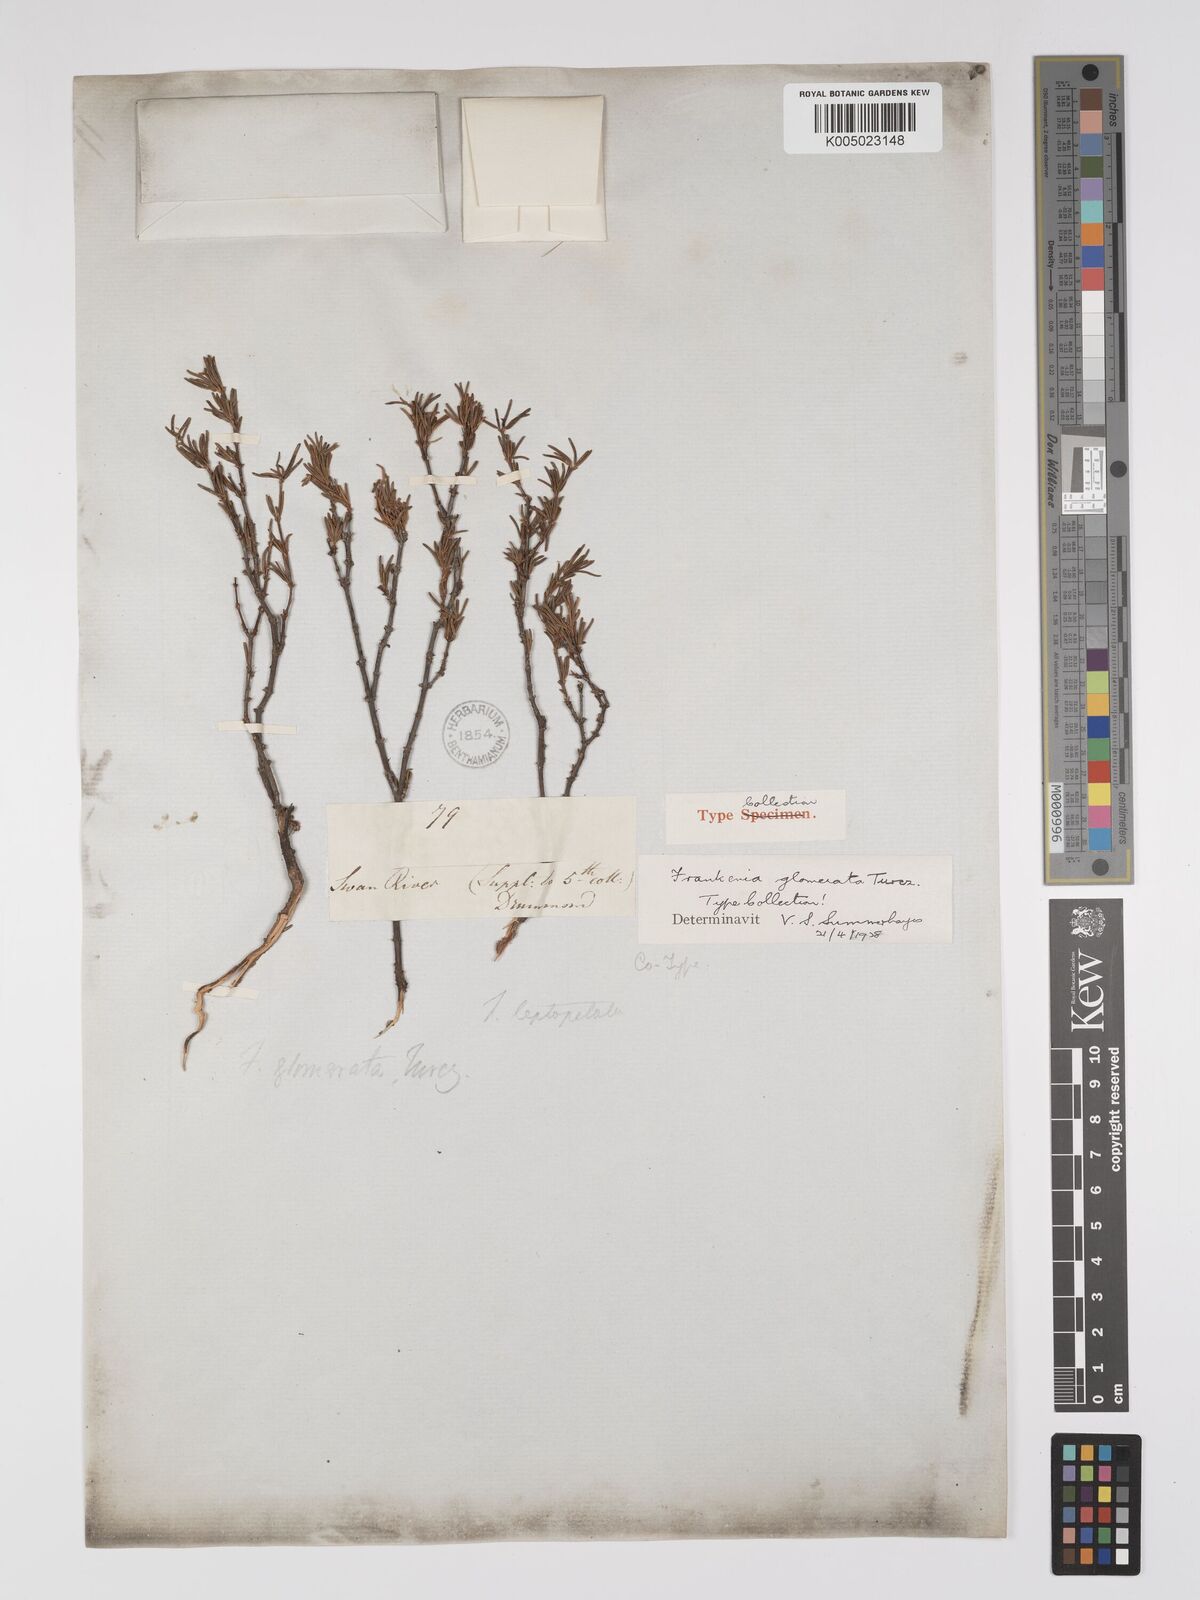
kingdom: Plantae
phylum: Tracheophyta
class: Magnoliopsida
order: Caryophyllales
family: Frankeniaceae
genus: Frankenia
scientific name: Frankenia glomerata
